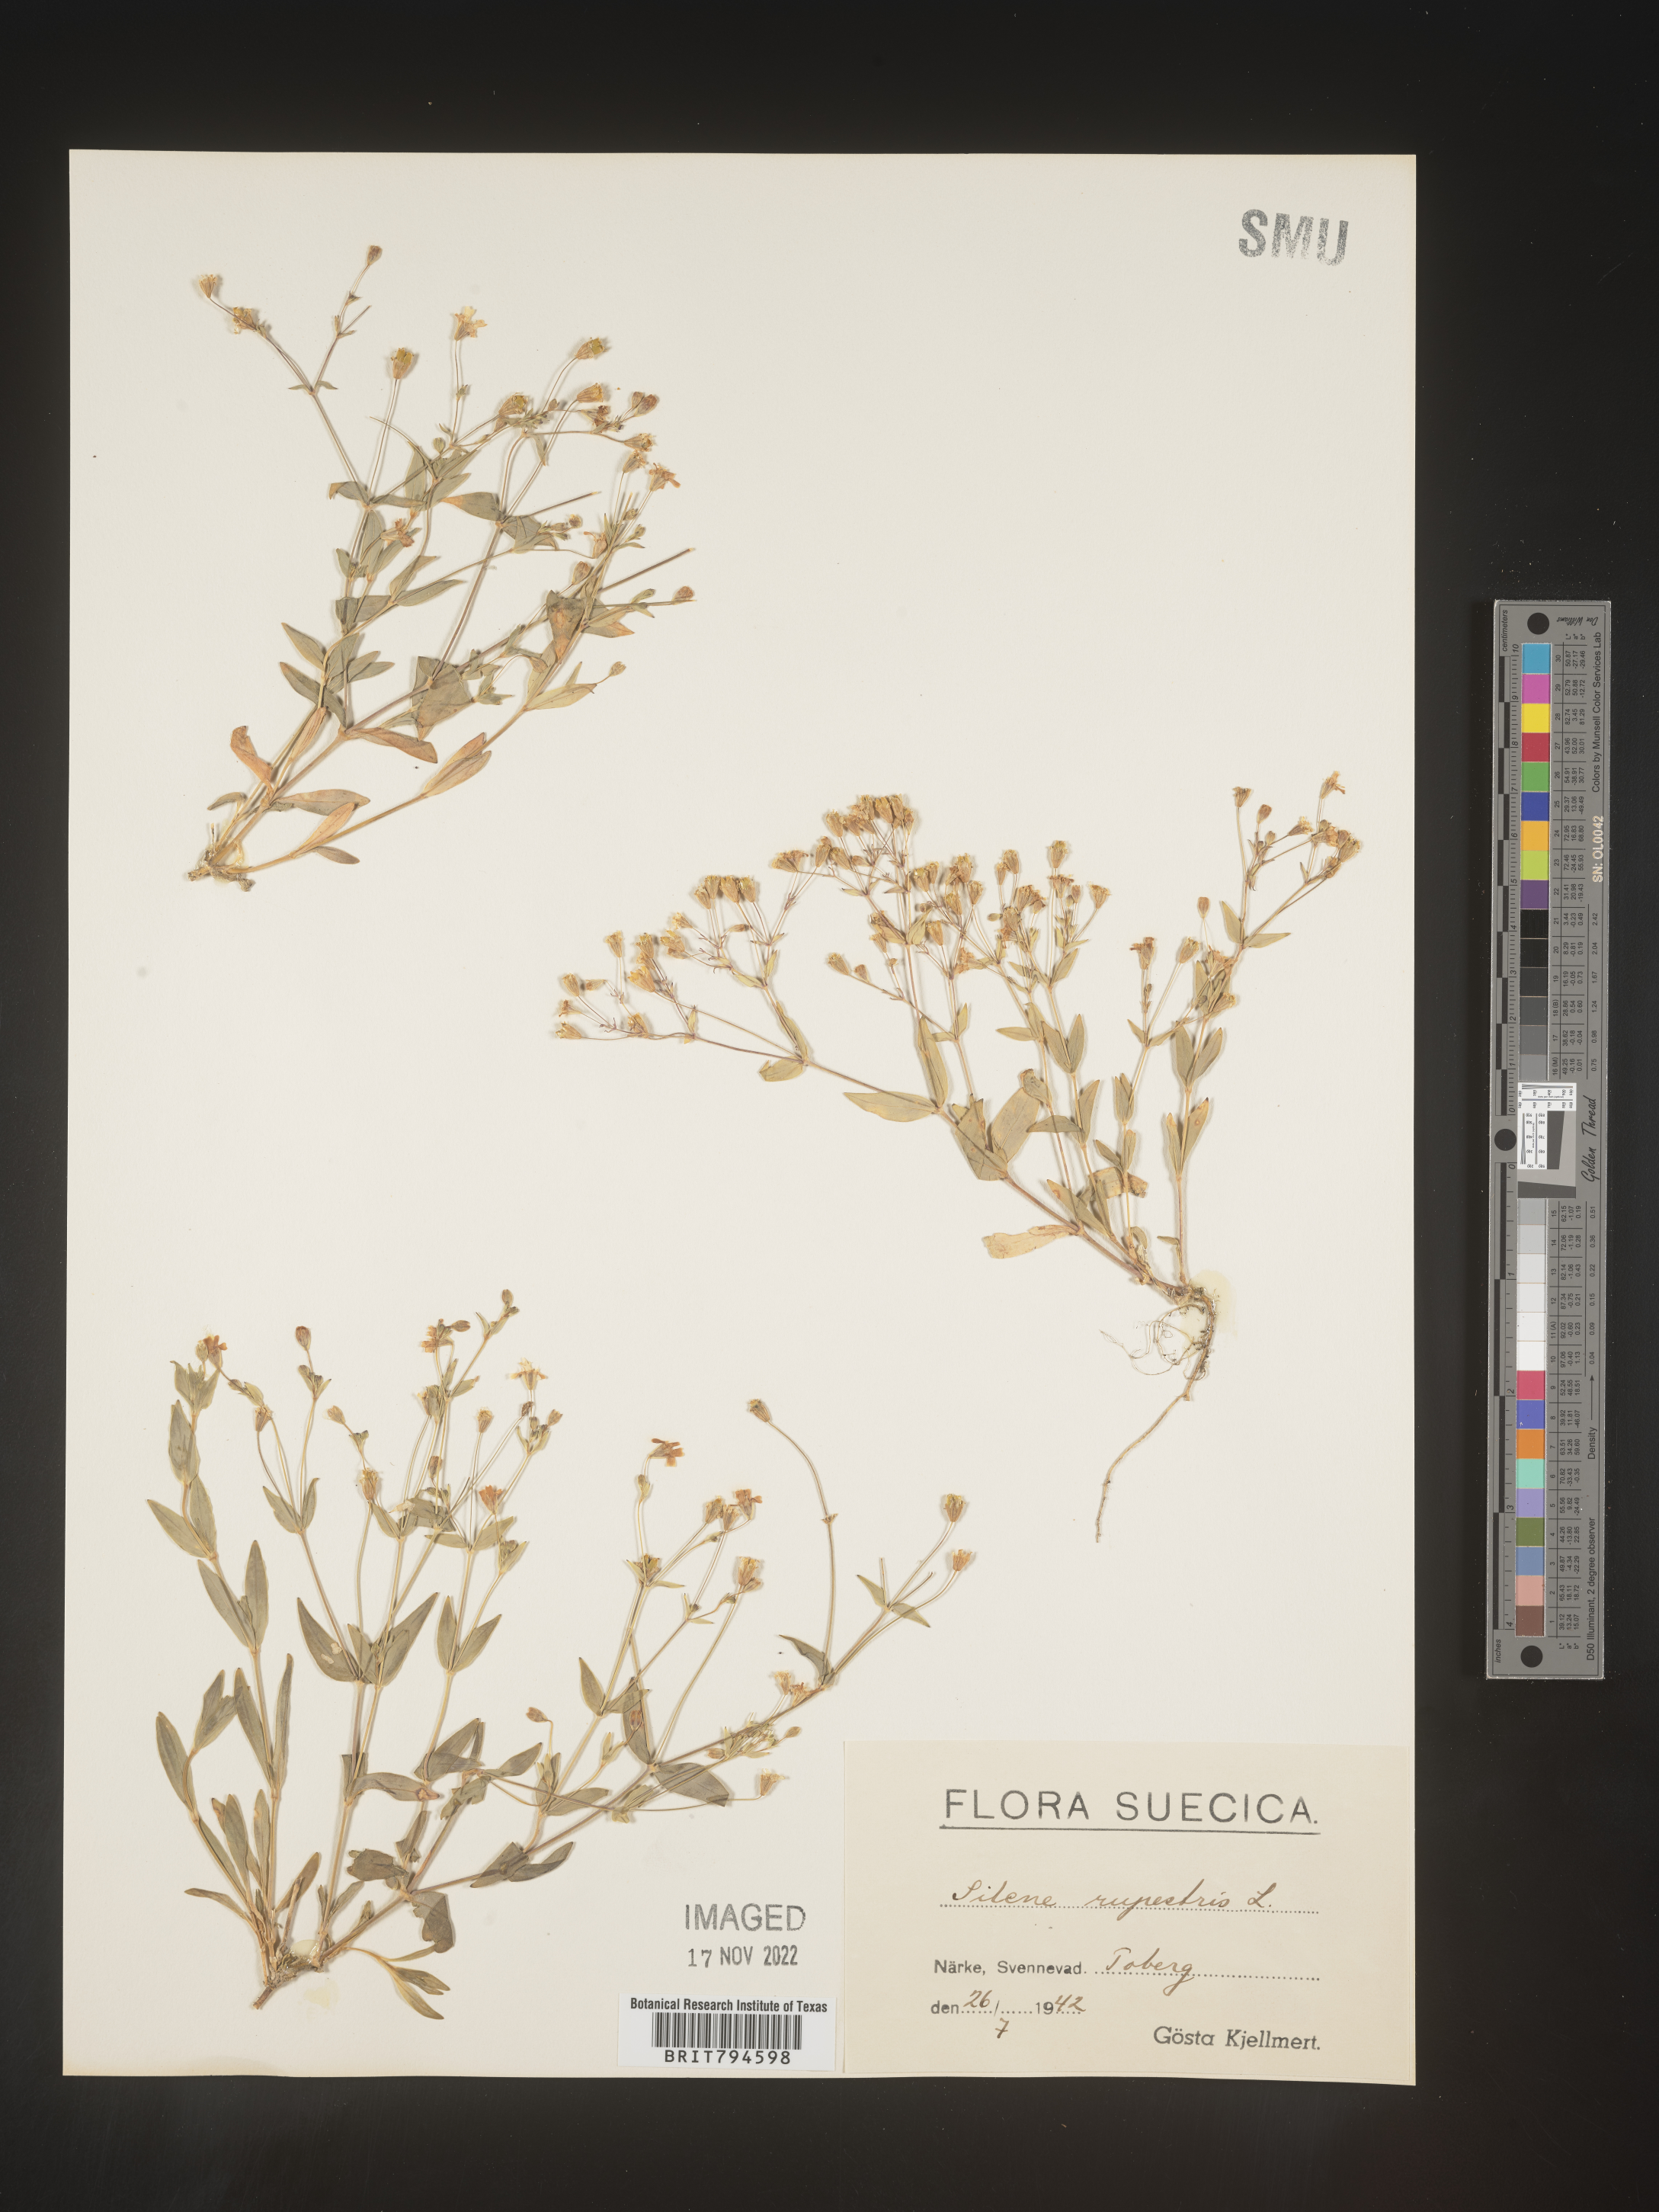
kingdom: Plantae
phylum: Tracheophyta
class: Magnoliopsida
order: Caryophyllales
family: Caryophyllaceae
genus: Atocion
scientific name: Atocion rupestre
